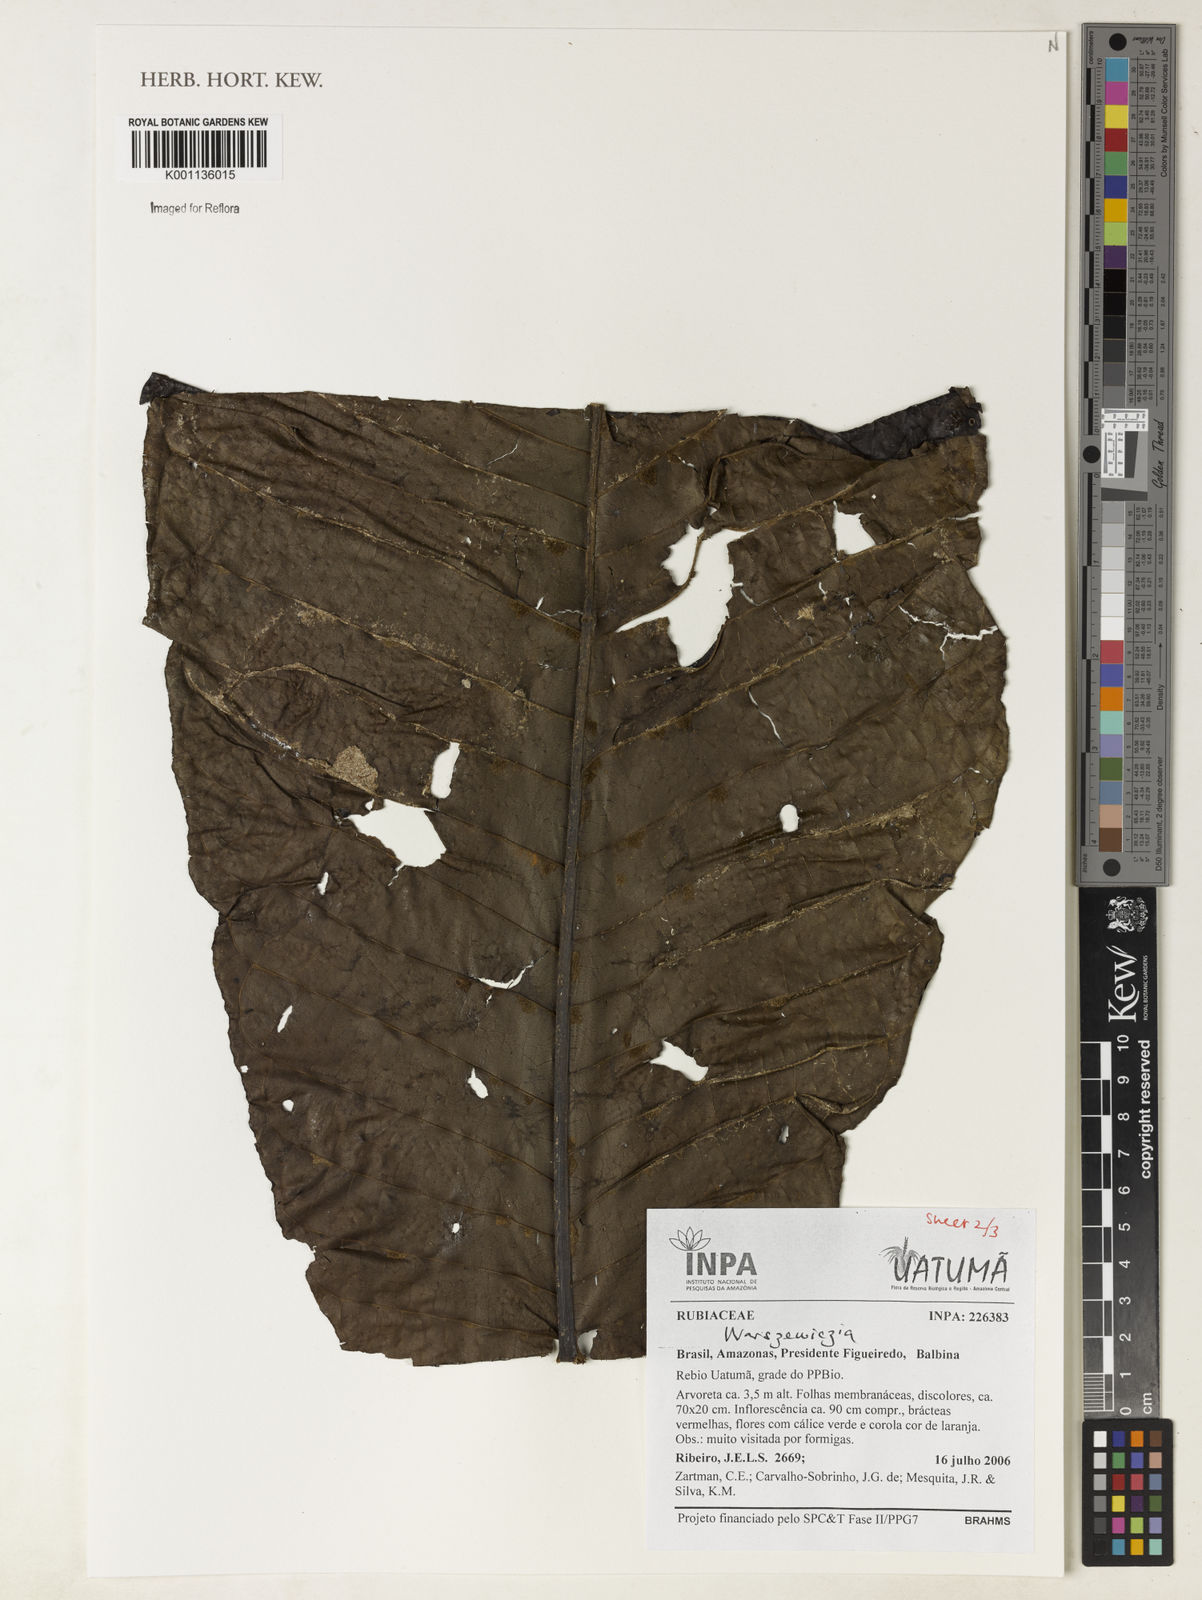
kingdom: Plantae
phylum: Tracheophyta
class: Magnoliopsida
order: Gentianales
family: Rubiaceae
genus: Warszewiczia
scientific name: Warszewiczia
